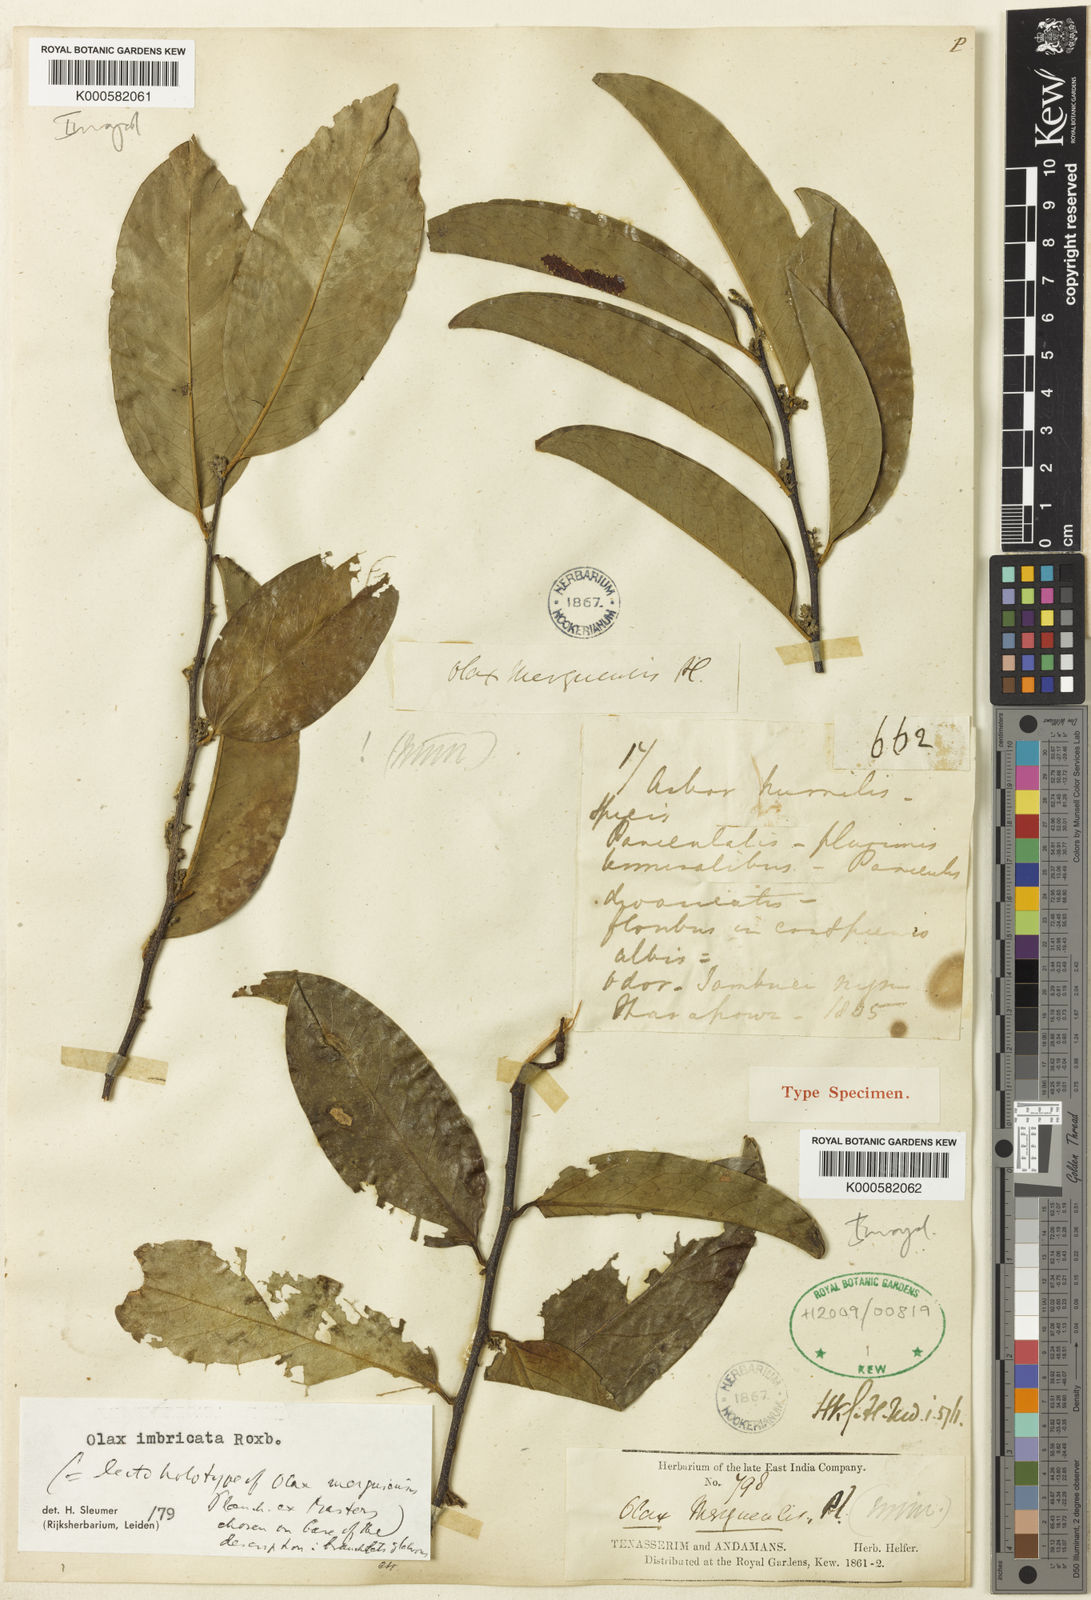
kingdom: Plantae
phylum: Tracheophyta
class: Magnoliopsida
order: Santalales
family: Olacaceae
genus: Olax
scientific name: Olax imbricata
